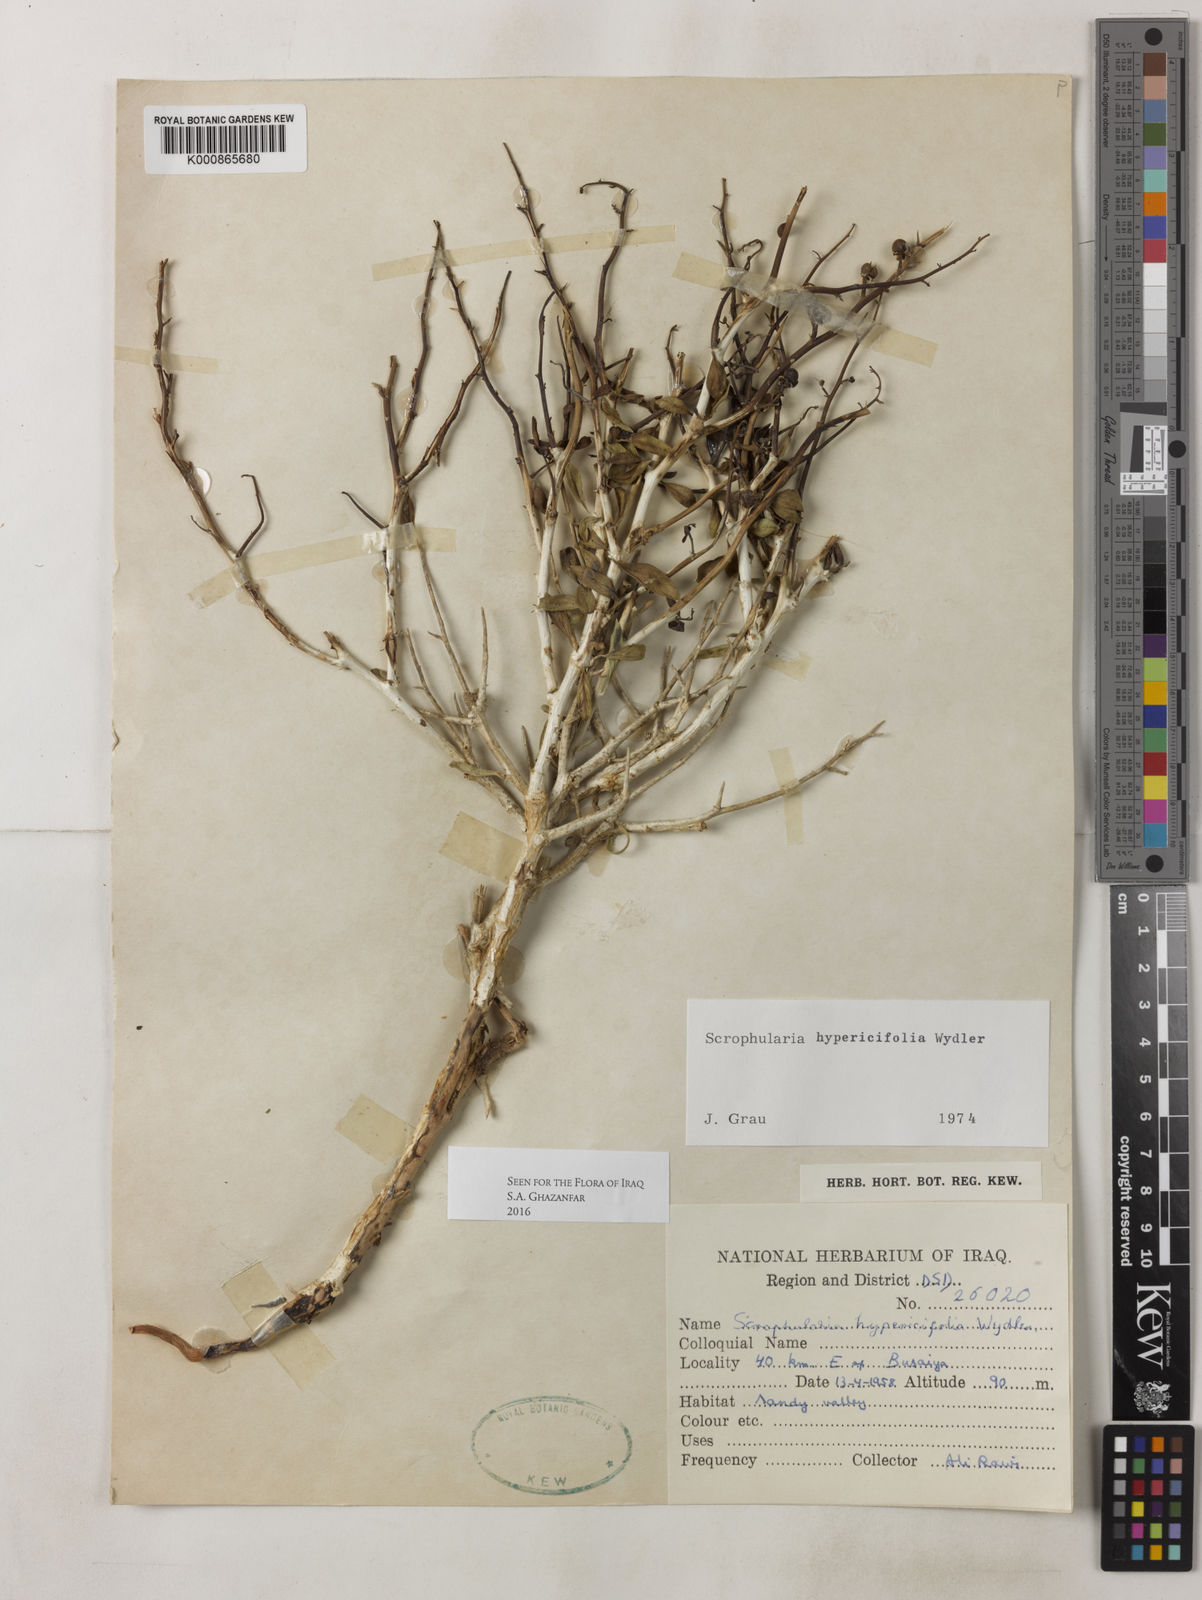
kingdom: Plantae
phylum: Tracheophyta
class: Magnoliopsida
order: Lamiales
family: Scrophulariaceae
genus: Scrophularia
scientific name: Scrophularia hypericifolia
